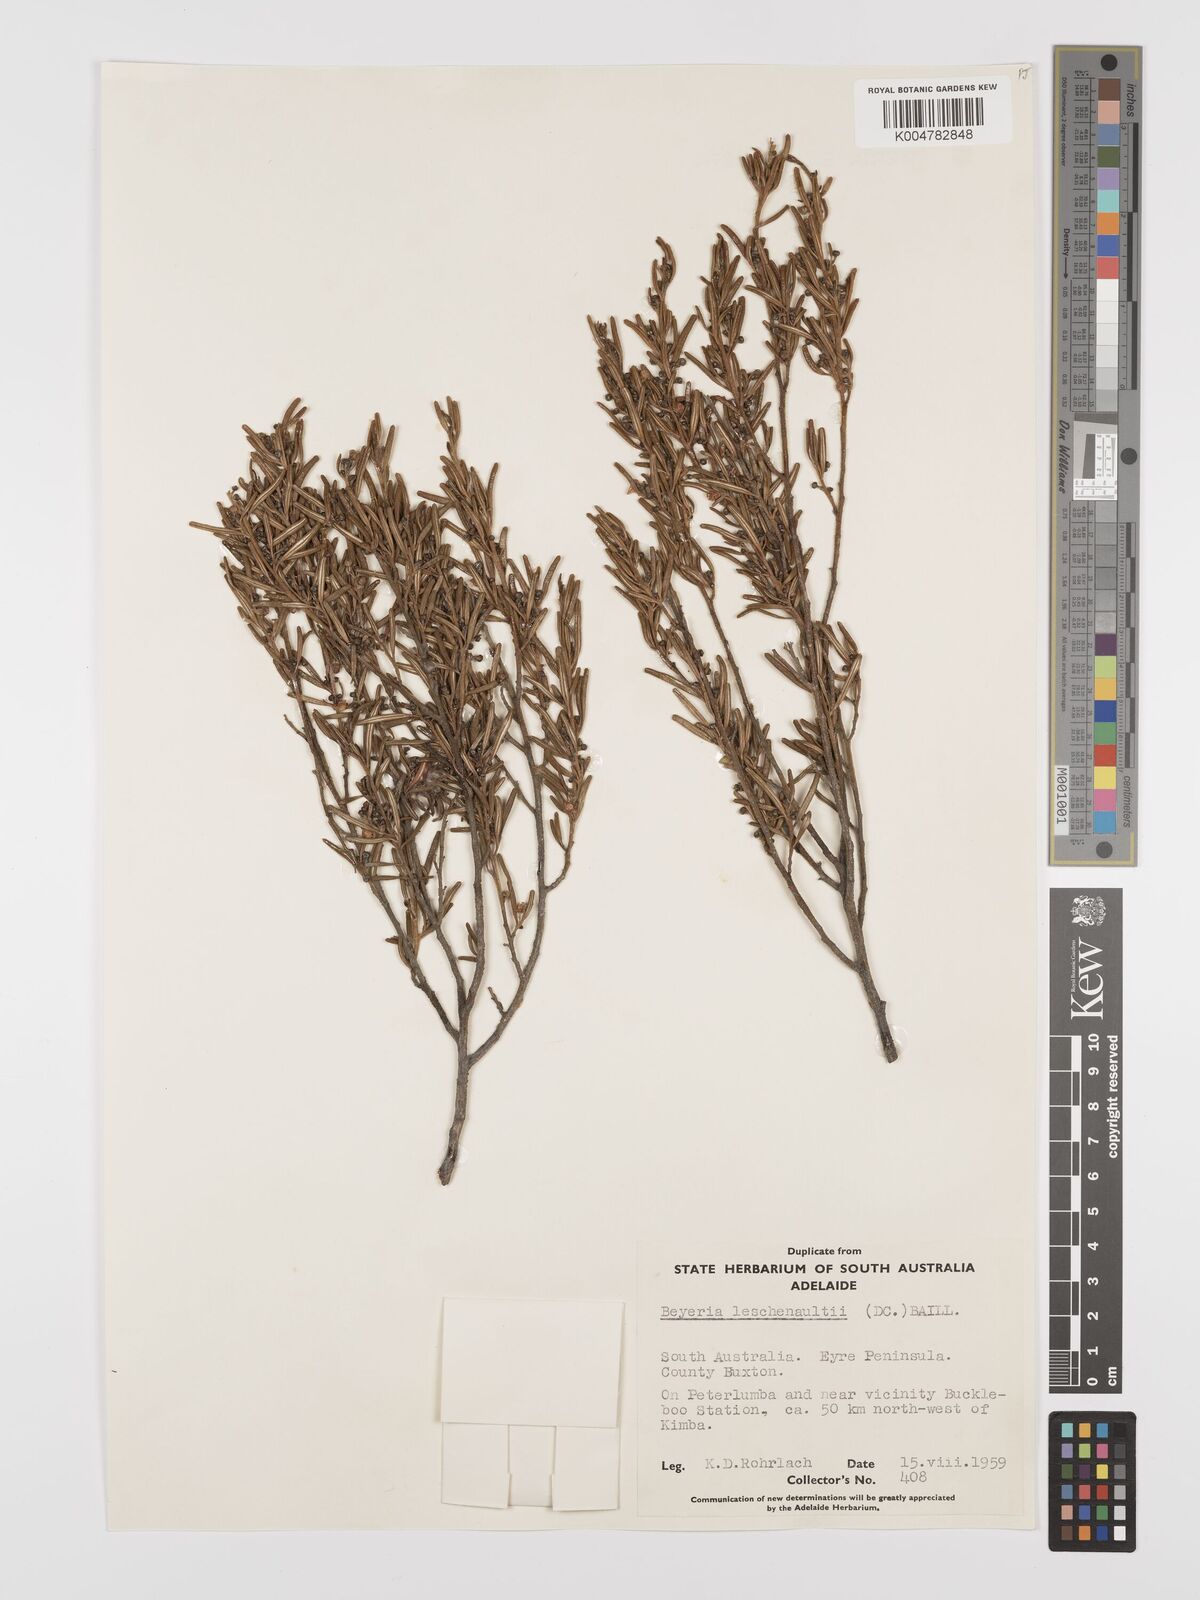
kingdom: Plantae
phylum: Tracheophyta
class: Magnoliopsida
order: Malpighiales
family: Euphorbiaceae
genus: Beyeria
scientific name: Beyeria lechenaultii
